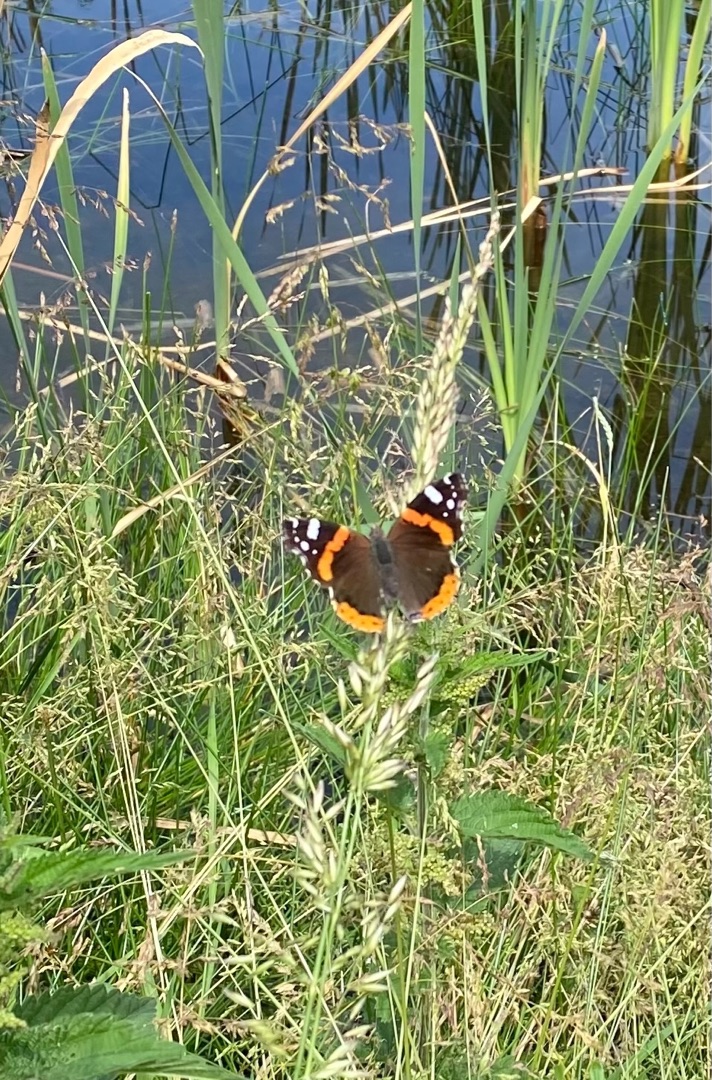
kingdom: Animalia
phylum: Arthropoda
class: Insecta
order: Lepidoptera
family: Nymphalidae
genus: Vanessa
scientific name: Vanessa atalanta
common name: Admiral
